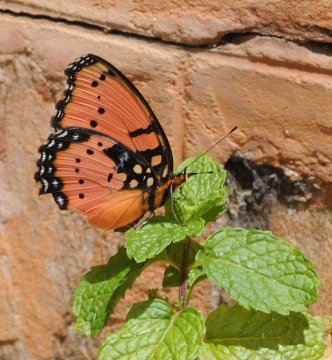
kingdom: Animalia
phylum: Arthropoda
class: Insecta
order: Lepidoptera
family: Nymphalidae
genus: Precis
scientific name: Precis octavia
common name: Gaudy Commodore
